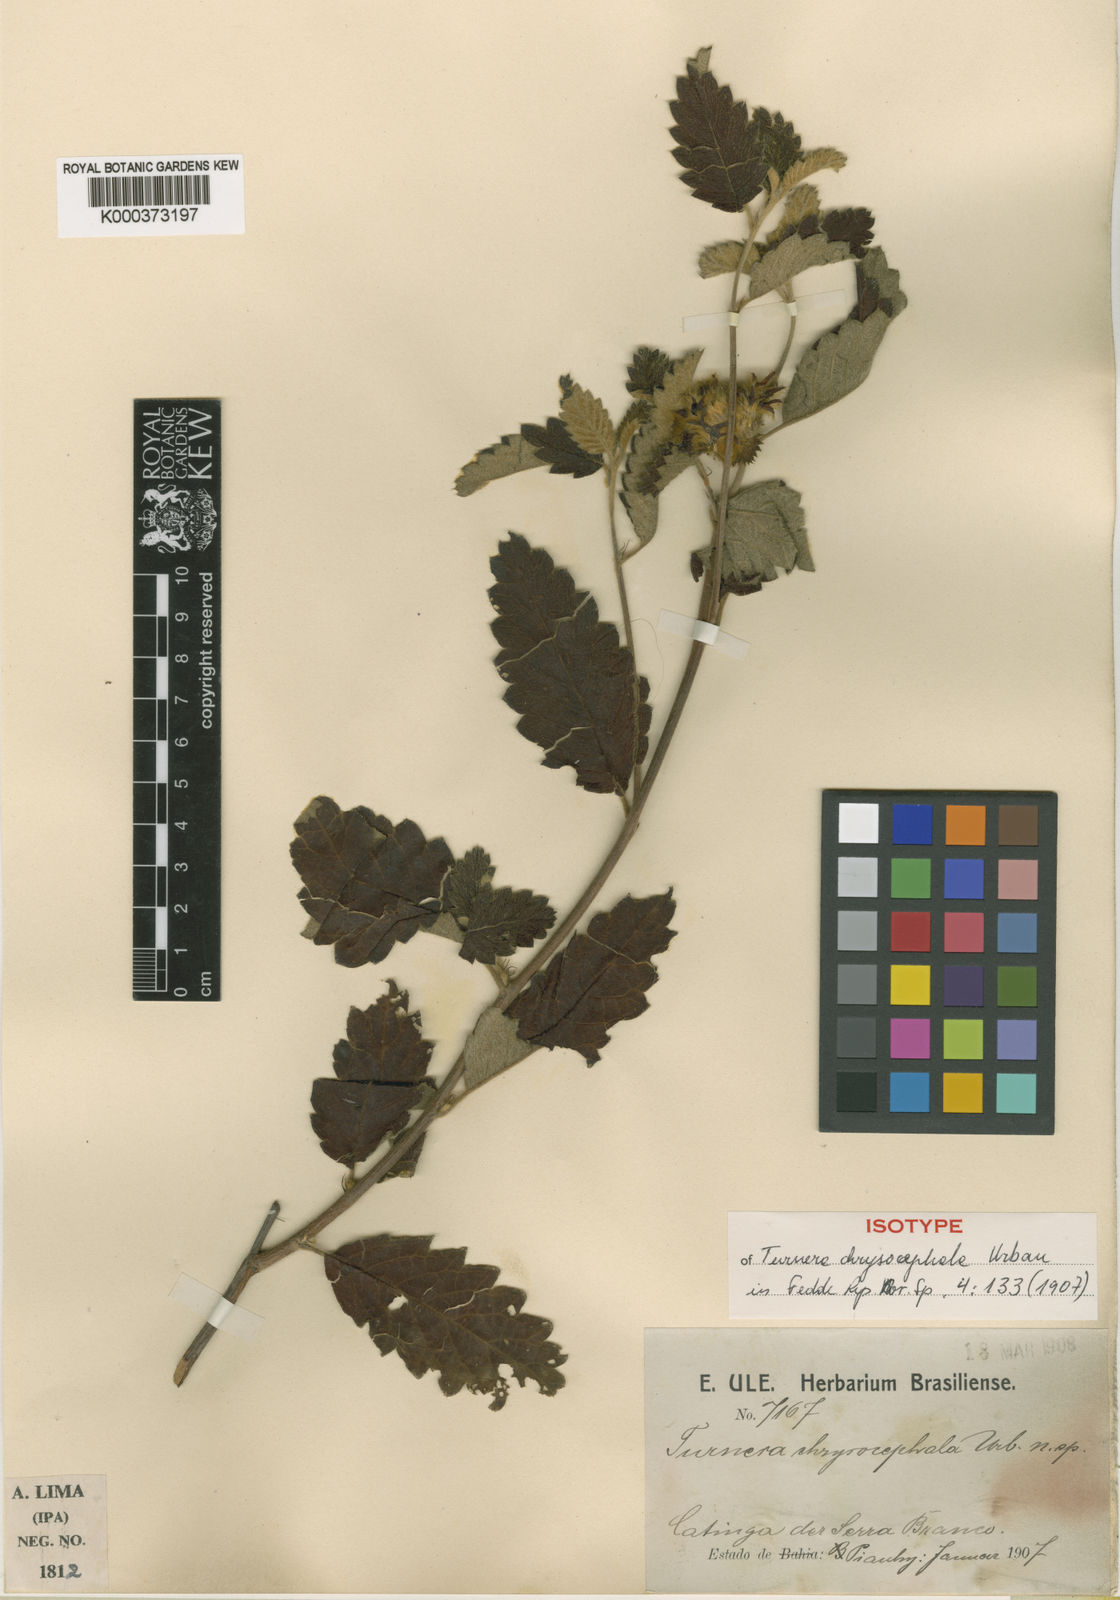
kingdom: Plantae
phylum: Tracheophyta
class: Magnoliopsida
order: Malpighiales
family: Turneraceae
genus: Turnera
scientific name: Turnera chrysocephala
